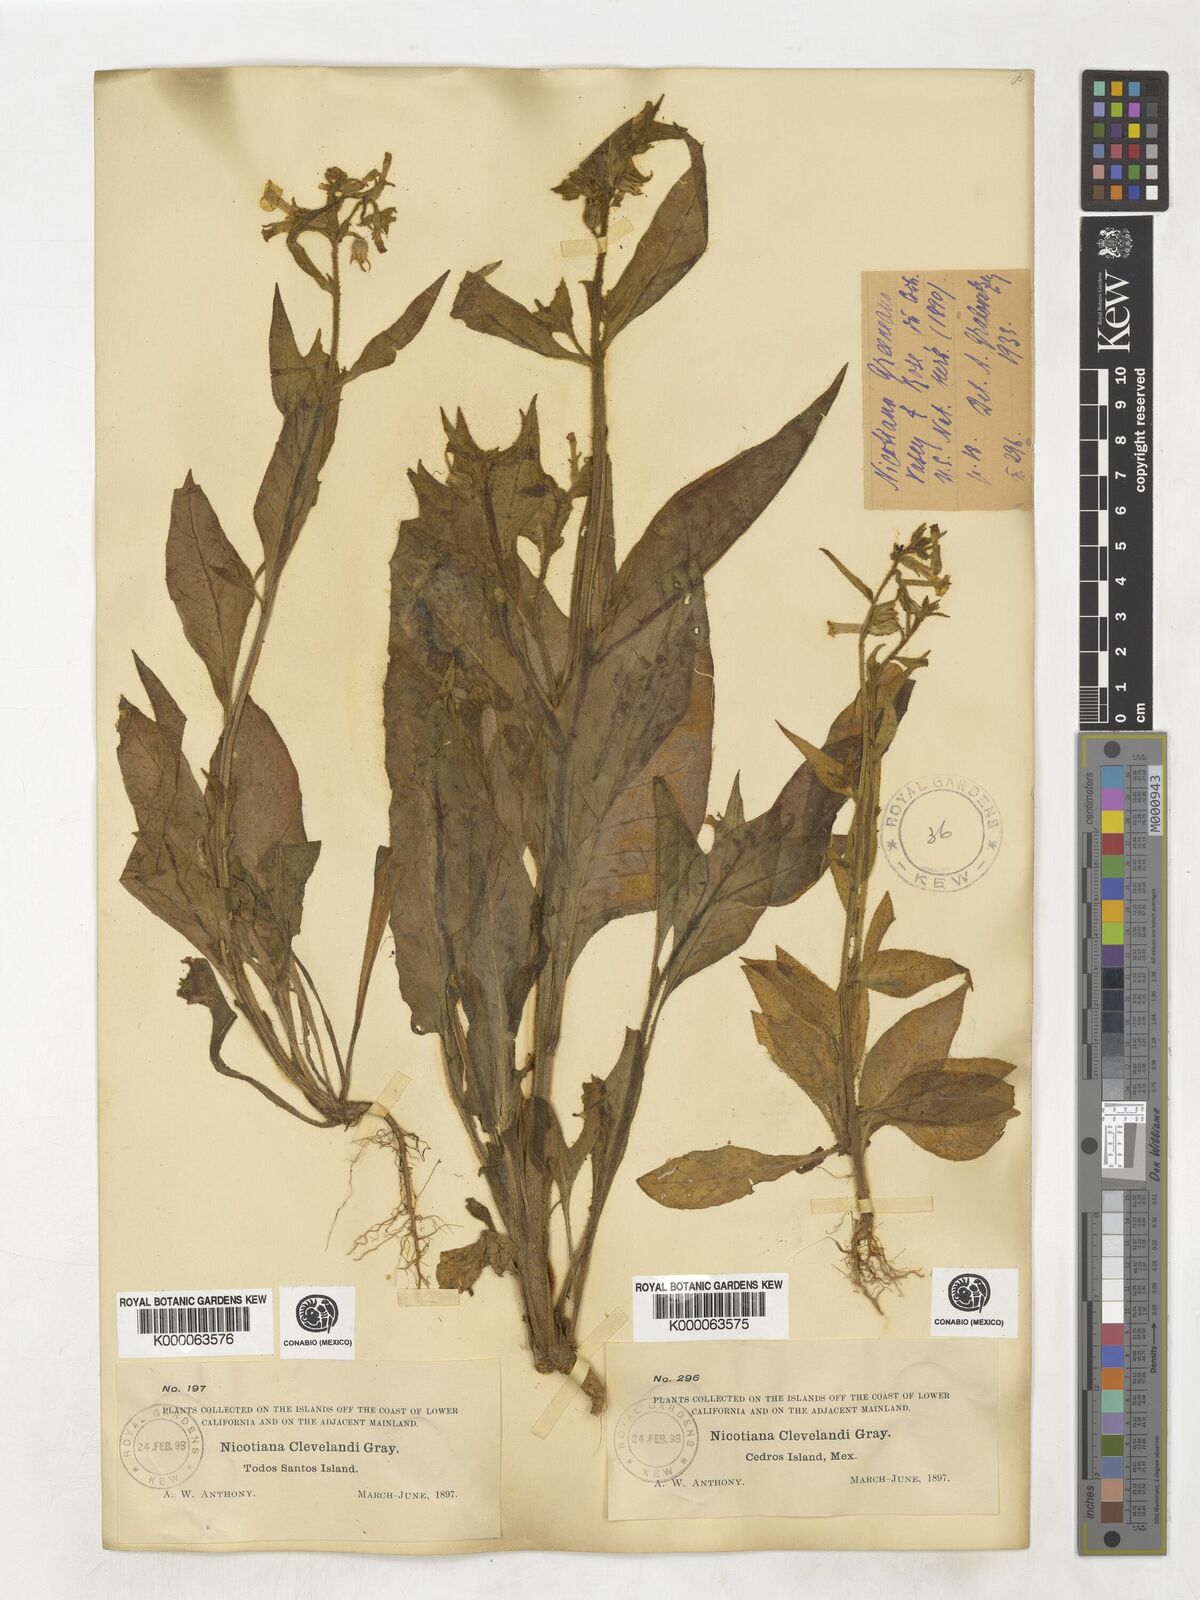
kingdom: Plantae
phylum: Tracheophyta
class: Magnoliopsida
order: Solanales
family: Solanaceae
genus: Nicotiana
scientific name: Nicotiana clevelandii
